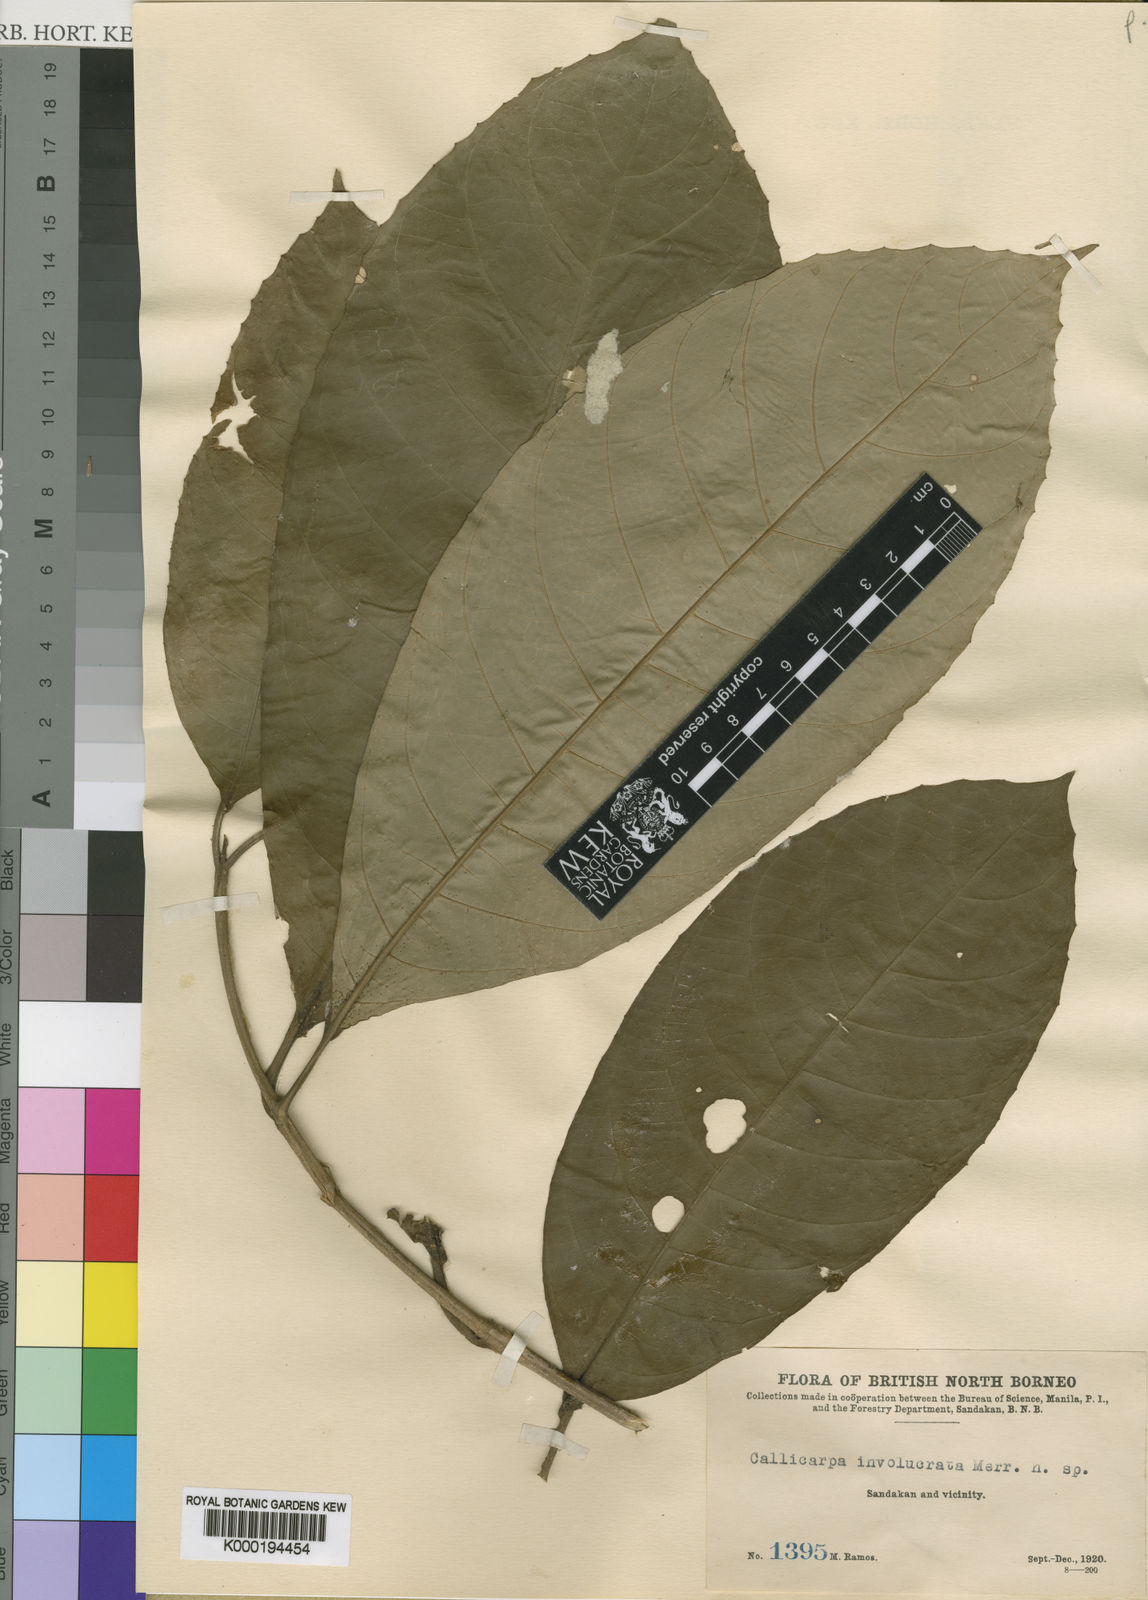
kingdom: Plantae
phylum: Tracheophyta
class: Magnoliopsida
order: Lamiales
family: Lamiaceae
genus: Callicarpa
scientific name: Callicarpa involucrata
